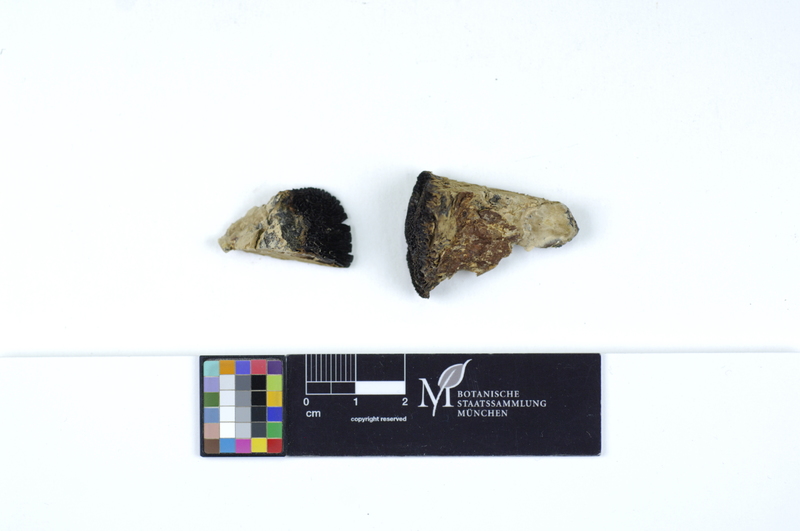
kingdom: Fungi
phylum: Basidiomycota
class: Agaricomycetes
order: Gloeophyllales
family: Gloeophyllaceae
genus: Gloeophyllum
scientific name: Gloeophyllum protractum
